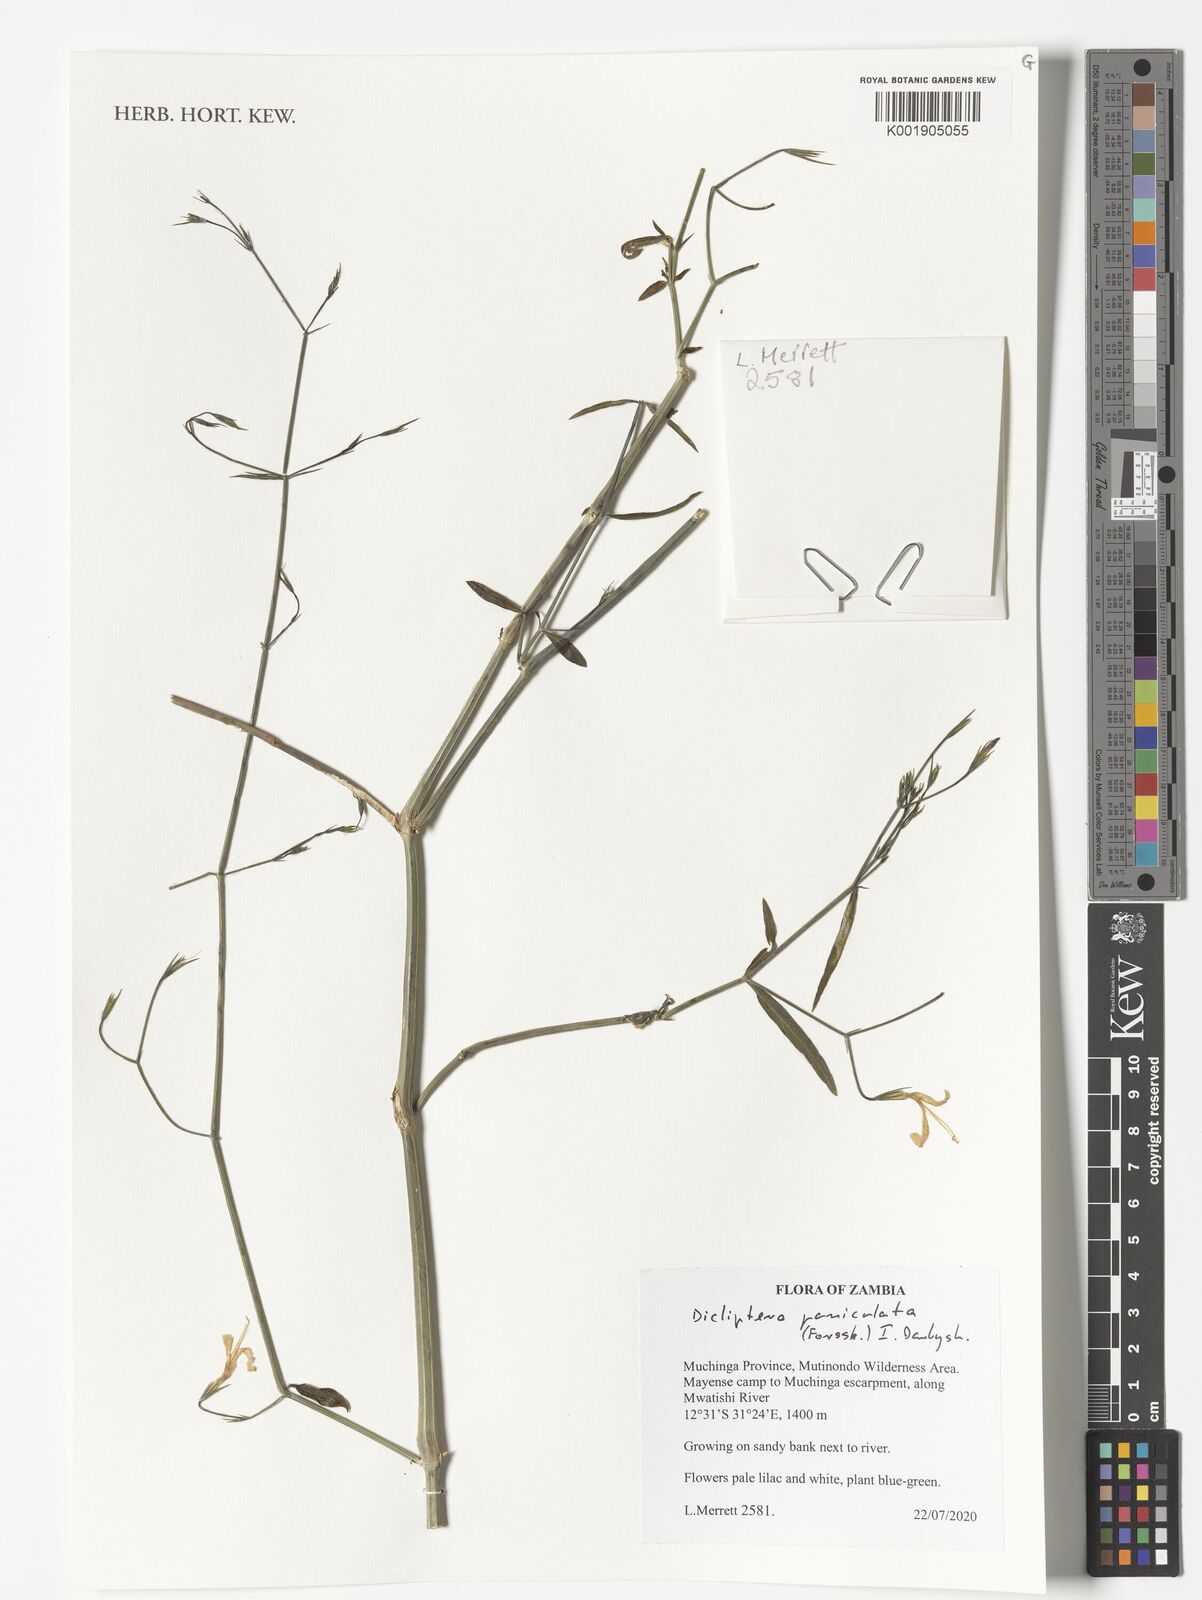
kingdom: Plantae
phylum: Tracheophyta
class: Magnoliopsida
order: Lamiales
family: Acanthaceae
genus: Dicliptera
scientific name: Dicliptera paniculata
